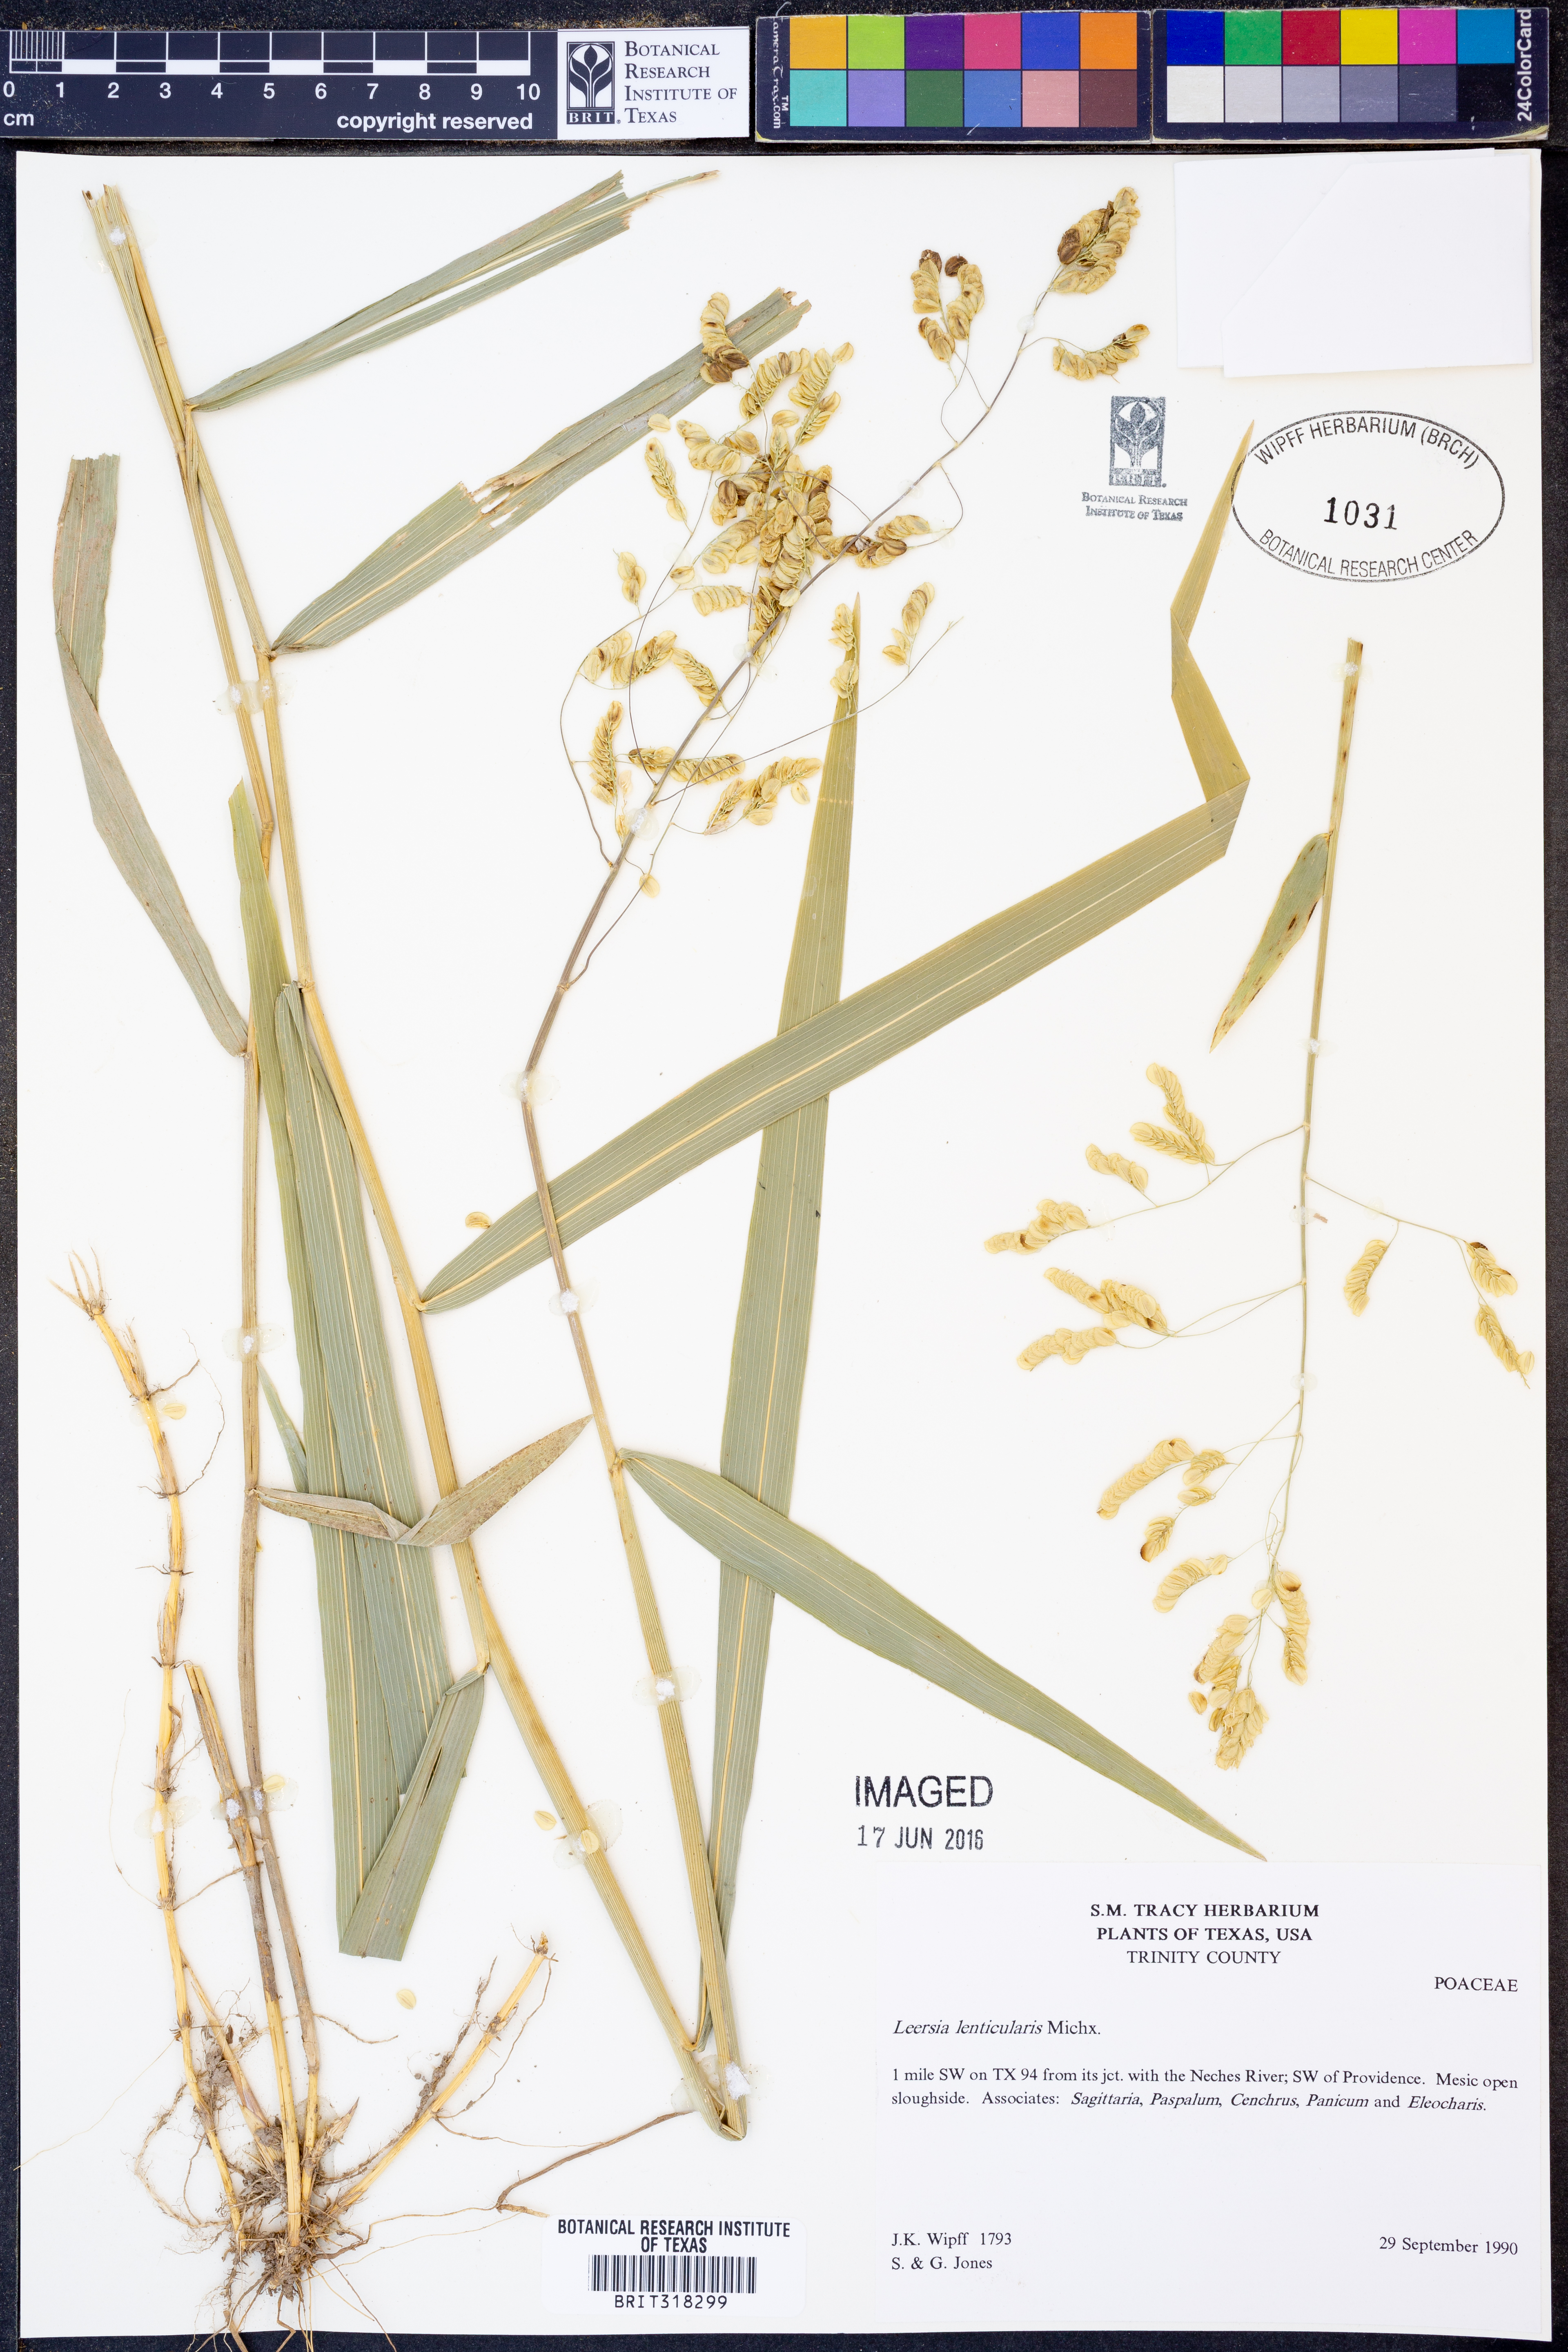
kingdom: Plantae
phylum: Tracheophyta
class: Liliopsida
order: Poales
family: Poaceae
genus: Leersia
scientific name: Leersia lenticularis
